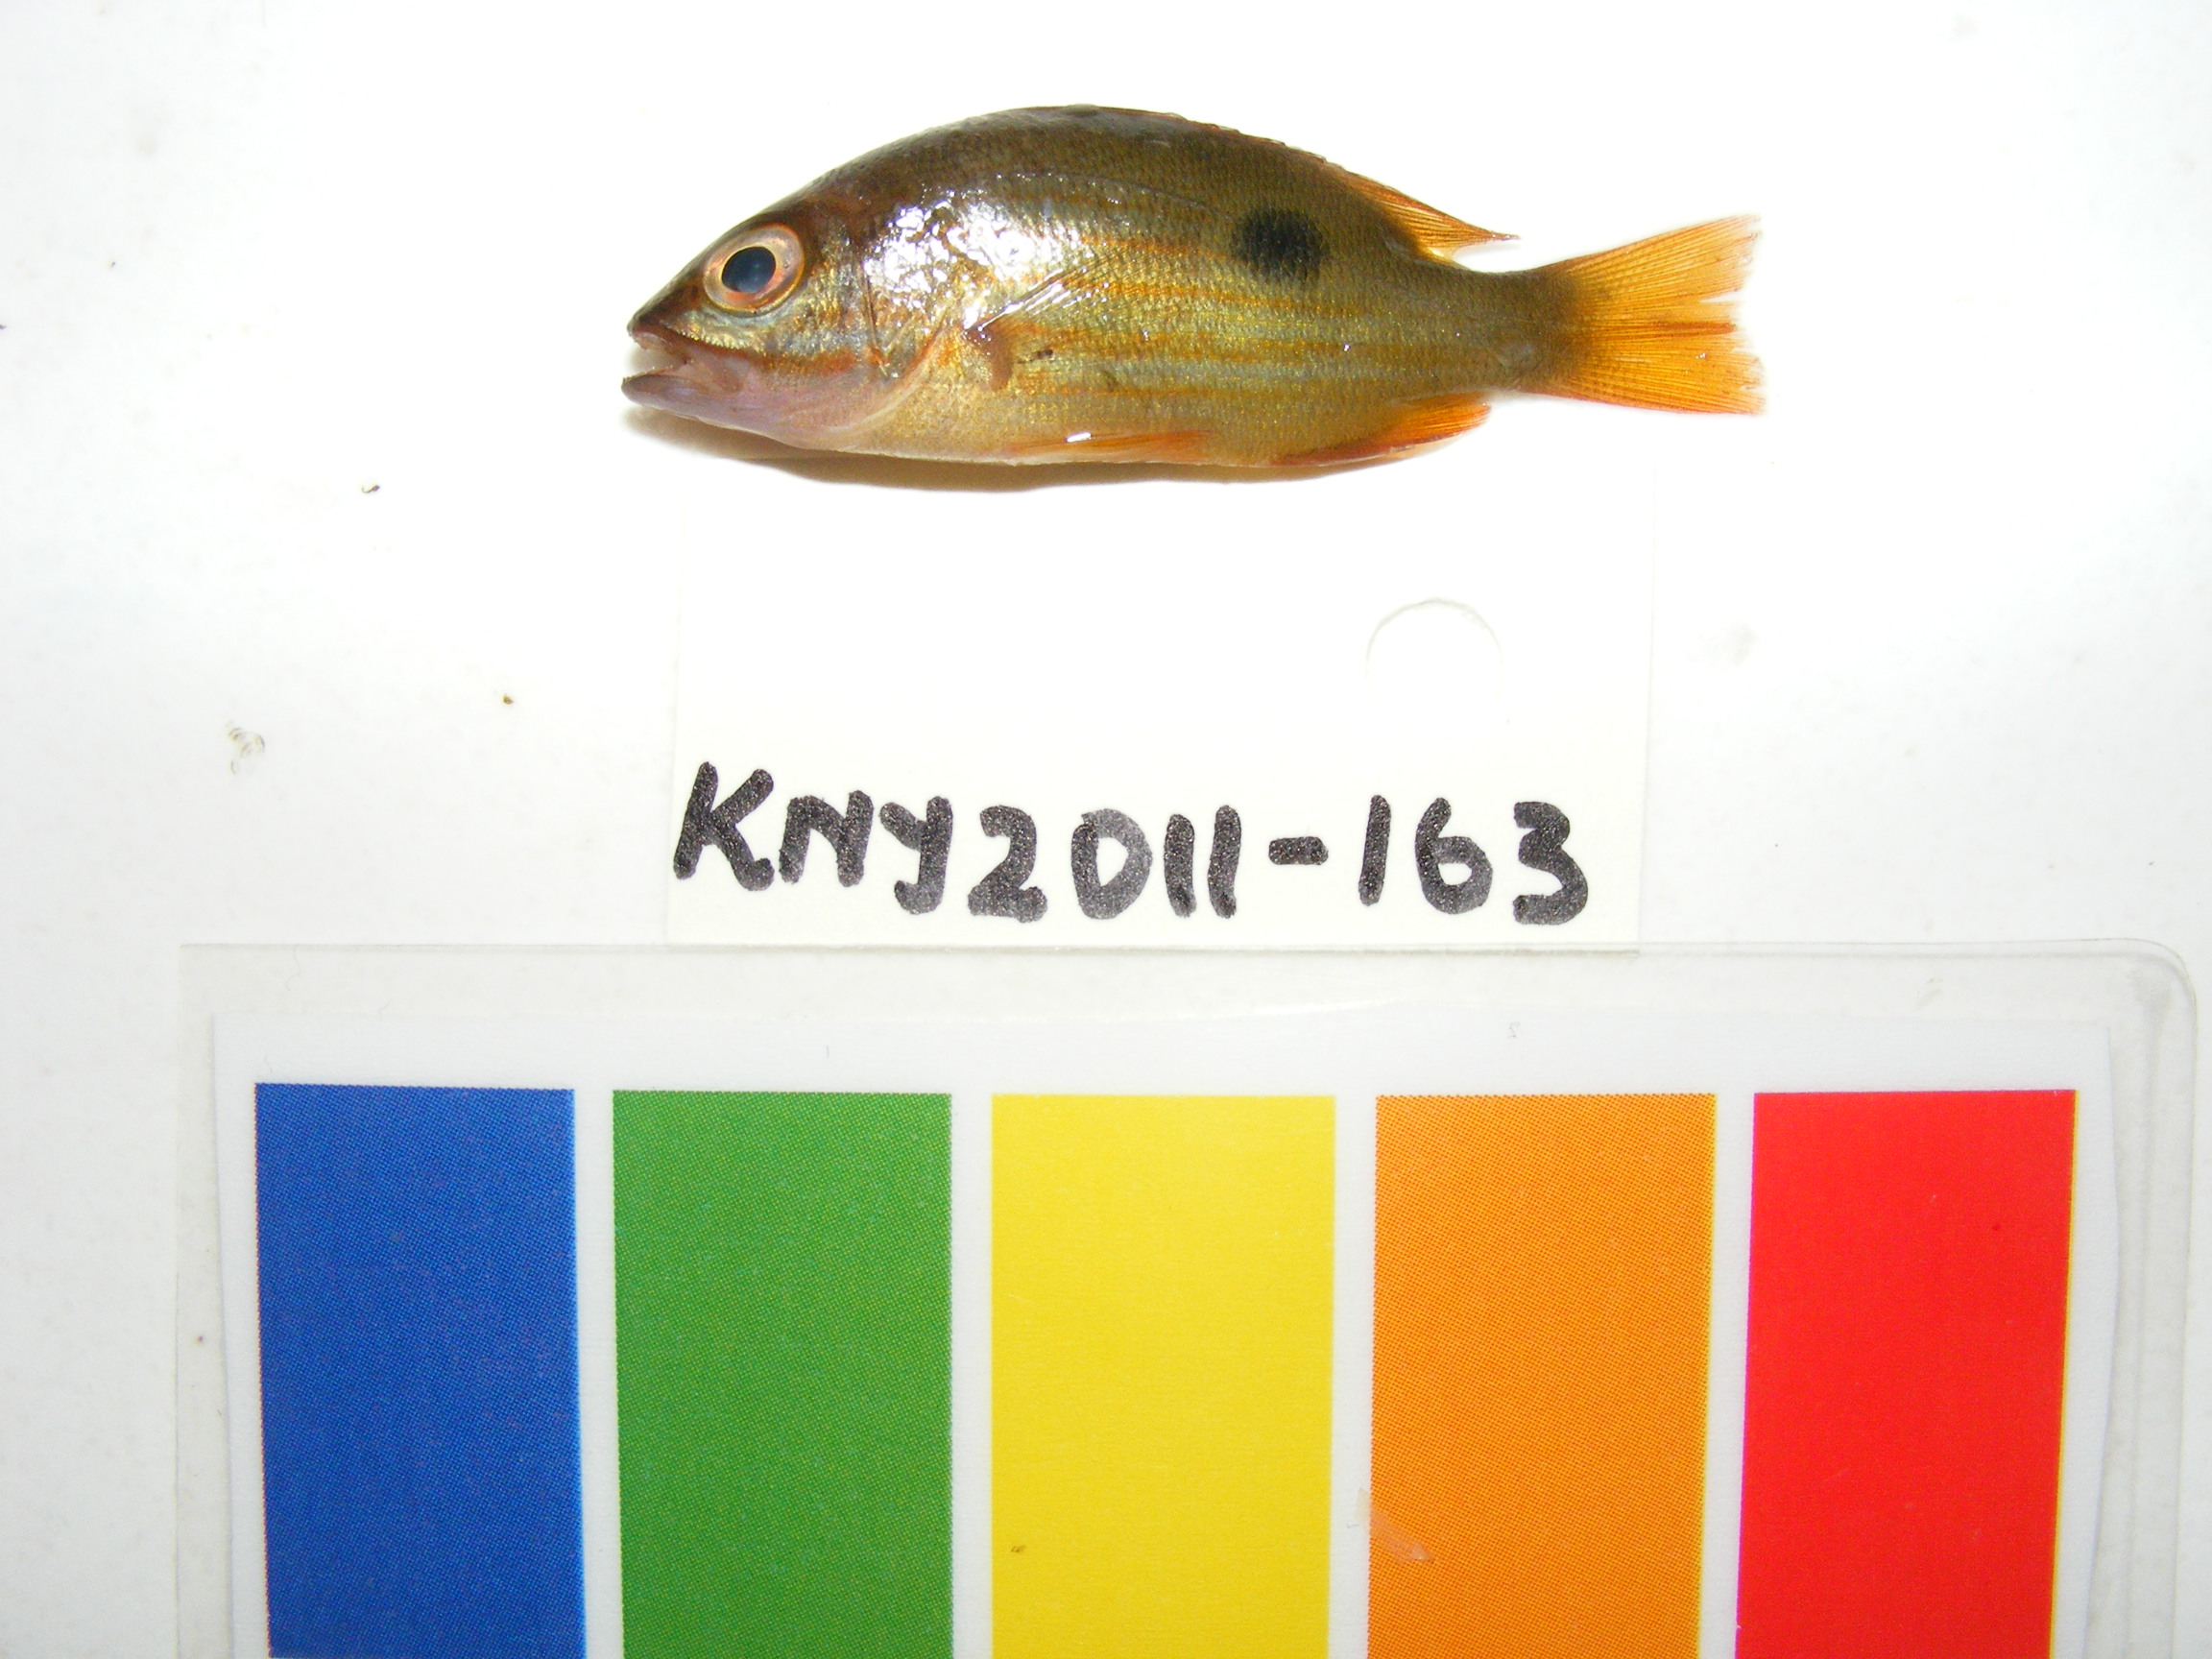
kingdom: Animalia
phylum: Chordata
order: Perciformes
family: Lutjanidae
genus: Lutjanus
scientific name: Lutjanus fulviflamma
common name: Blackspot snapper
